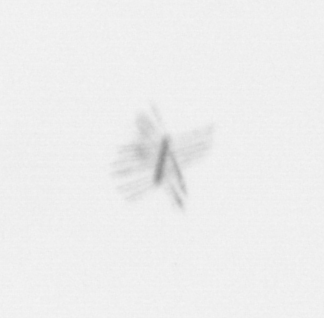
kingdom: Chromista
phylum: Ochrophyta
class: Bacillariophyceae
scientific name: Bacillariophyceae
